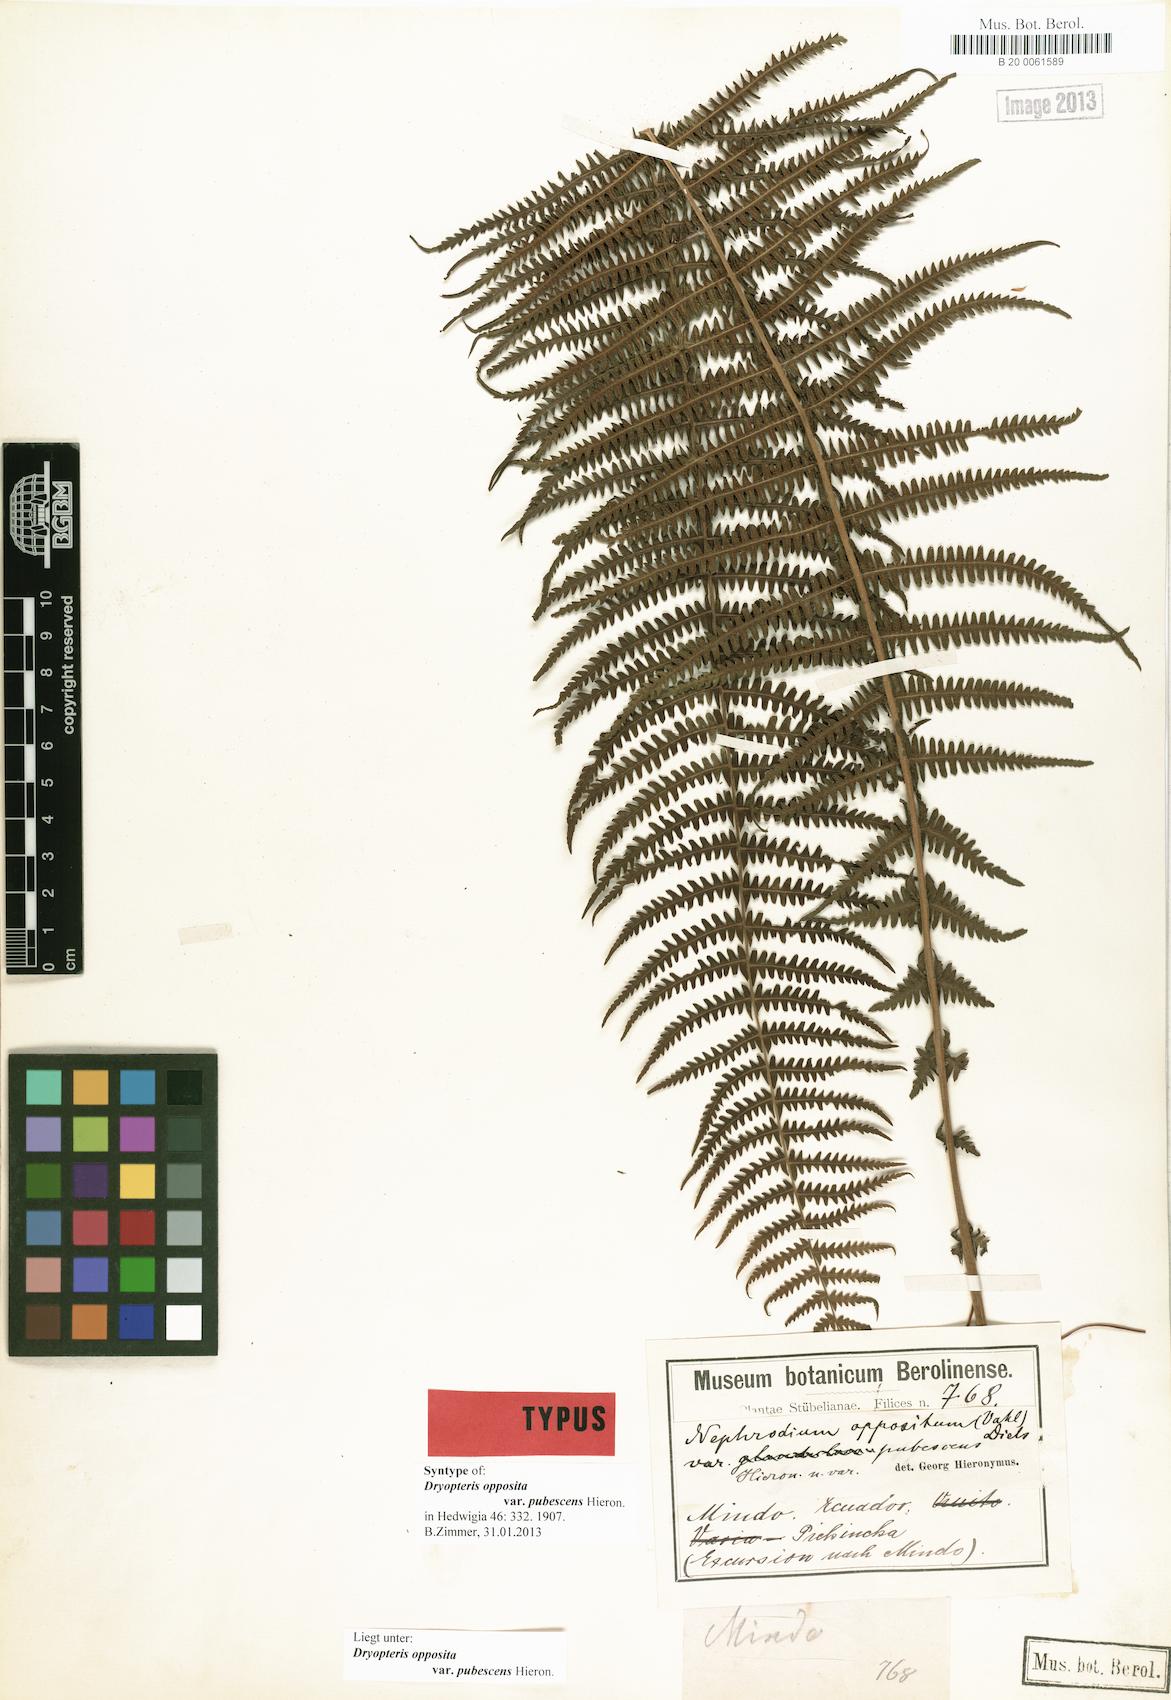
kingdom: Plantae
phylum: Tracheophyta
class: Polypodiopsida
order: Polypodiales
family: Thelypteridaceae
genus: Amauropelta
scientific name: Amauropelta opposita
